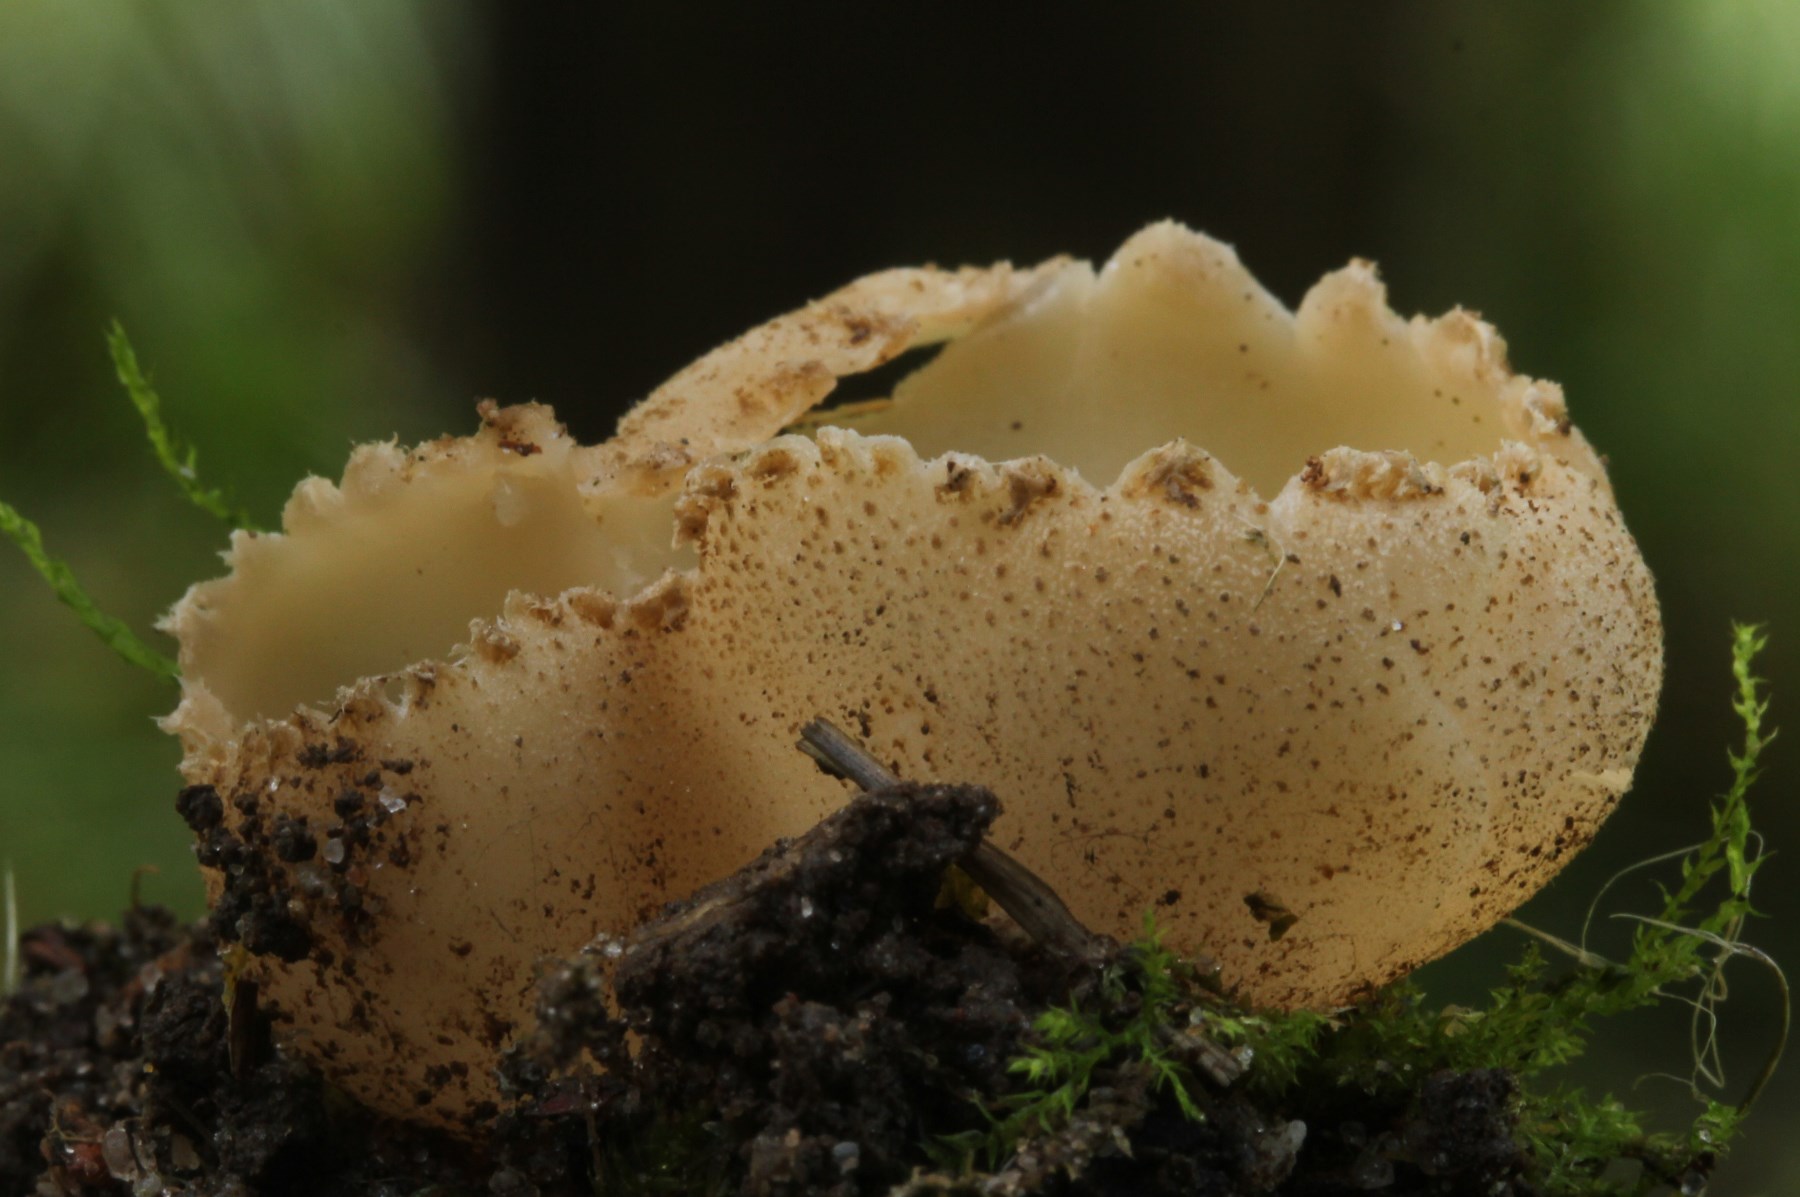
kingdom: Fungi
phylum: Ascomycota
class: Pezizomycetes
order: Pezizales
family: Pyronemataceae
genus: Tarzetta
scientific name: Tarzetta cupularis
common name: gulbrun pokalbæger
